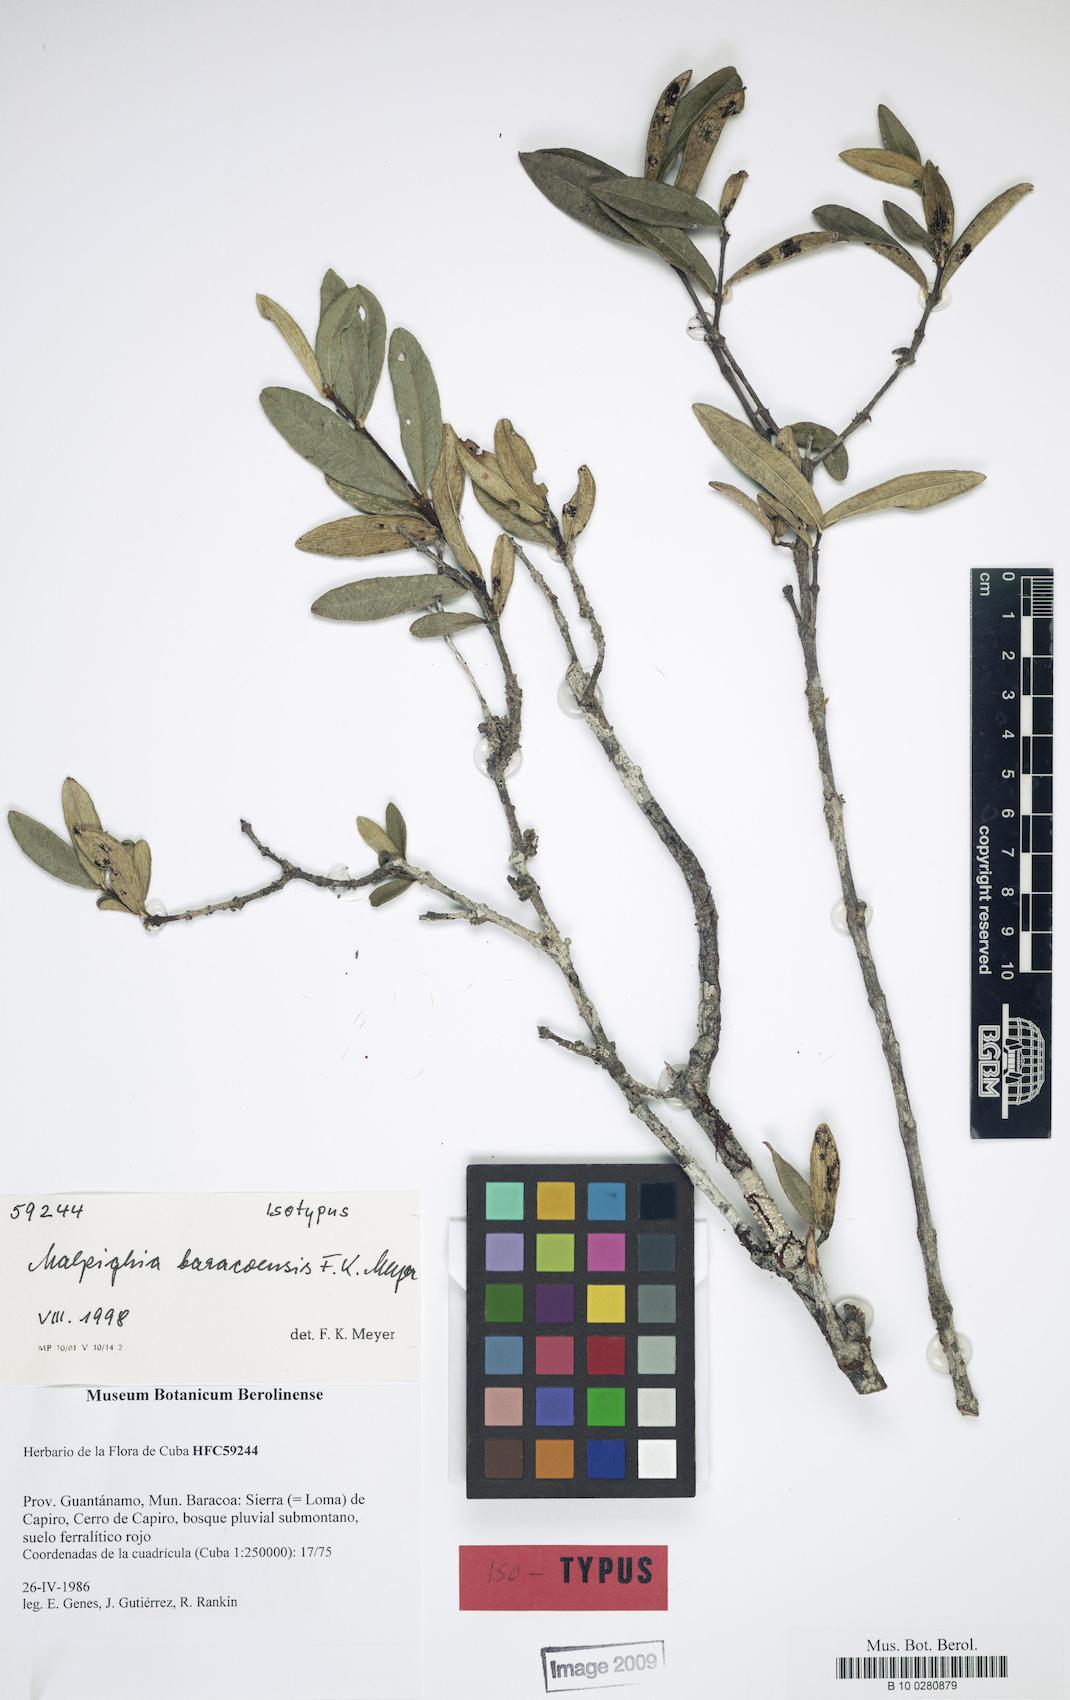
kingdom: Plantae
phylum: Tracheophyta
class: Magnoliopsida
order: Malpighiales
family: Malpighiaceae
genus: Malpighia
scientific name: Malpighia baracoensis
